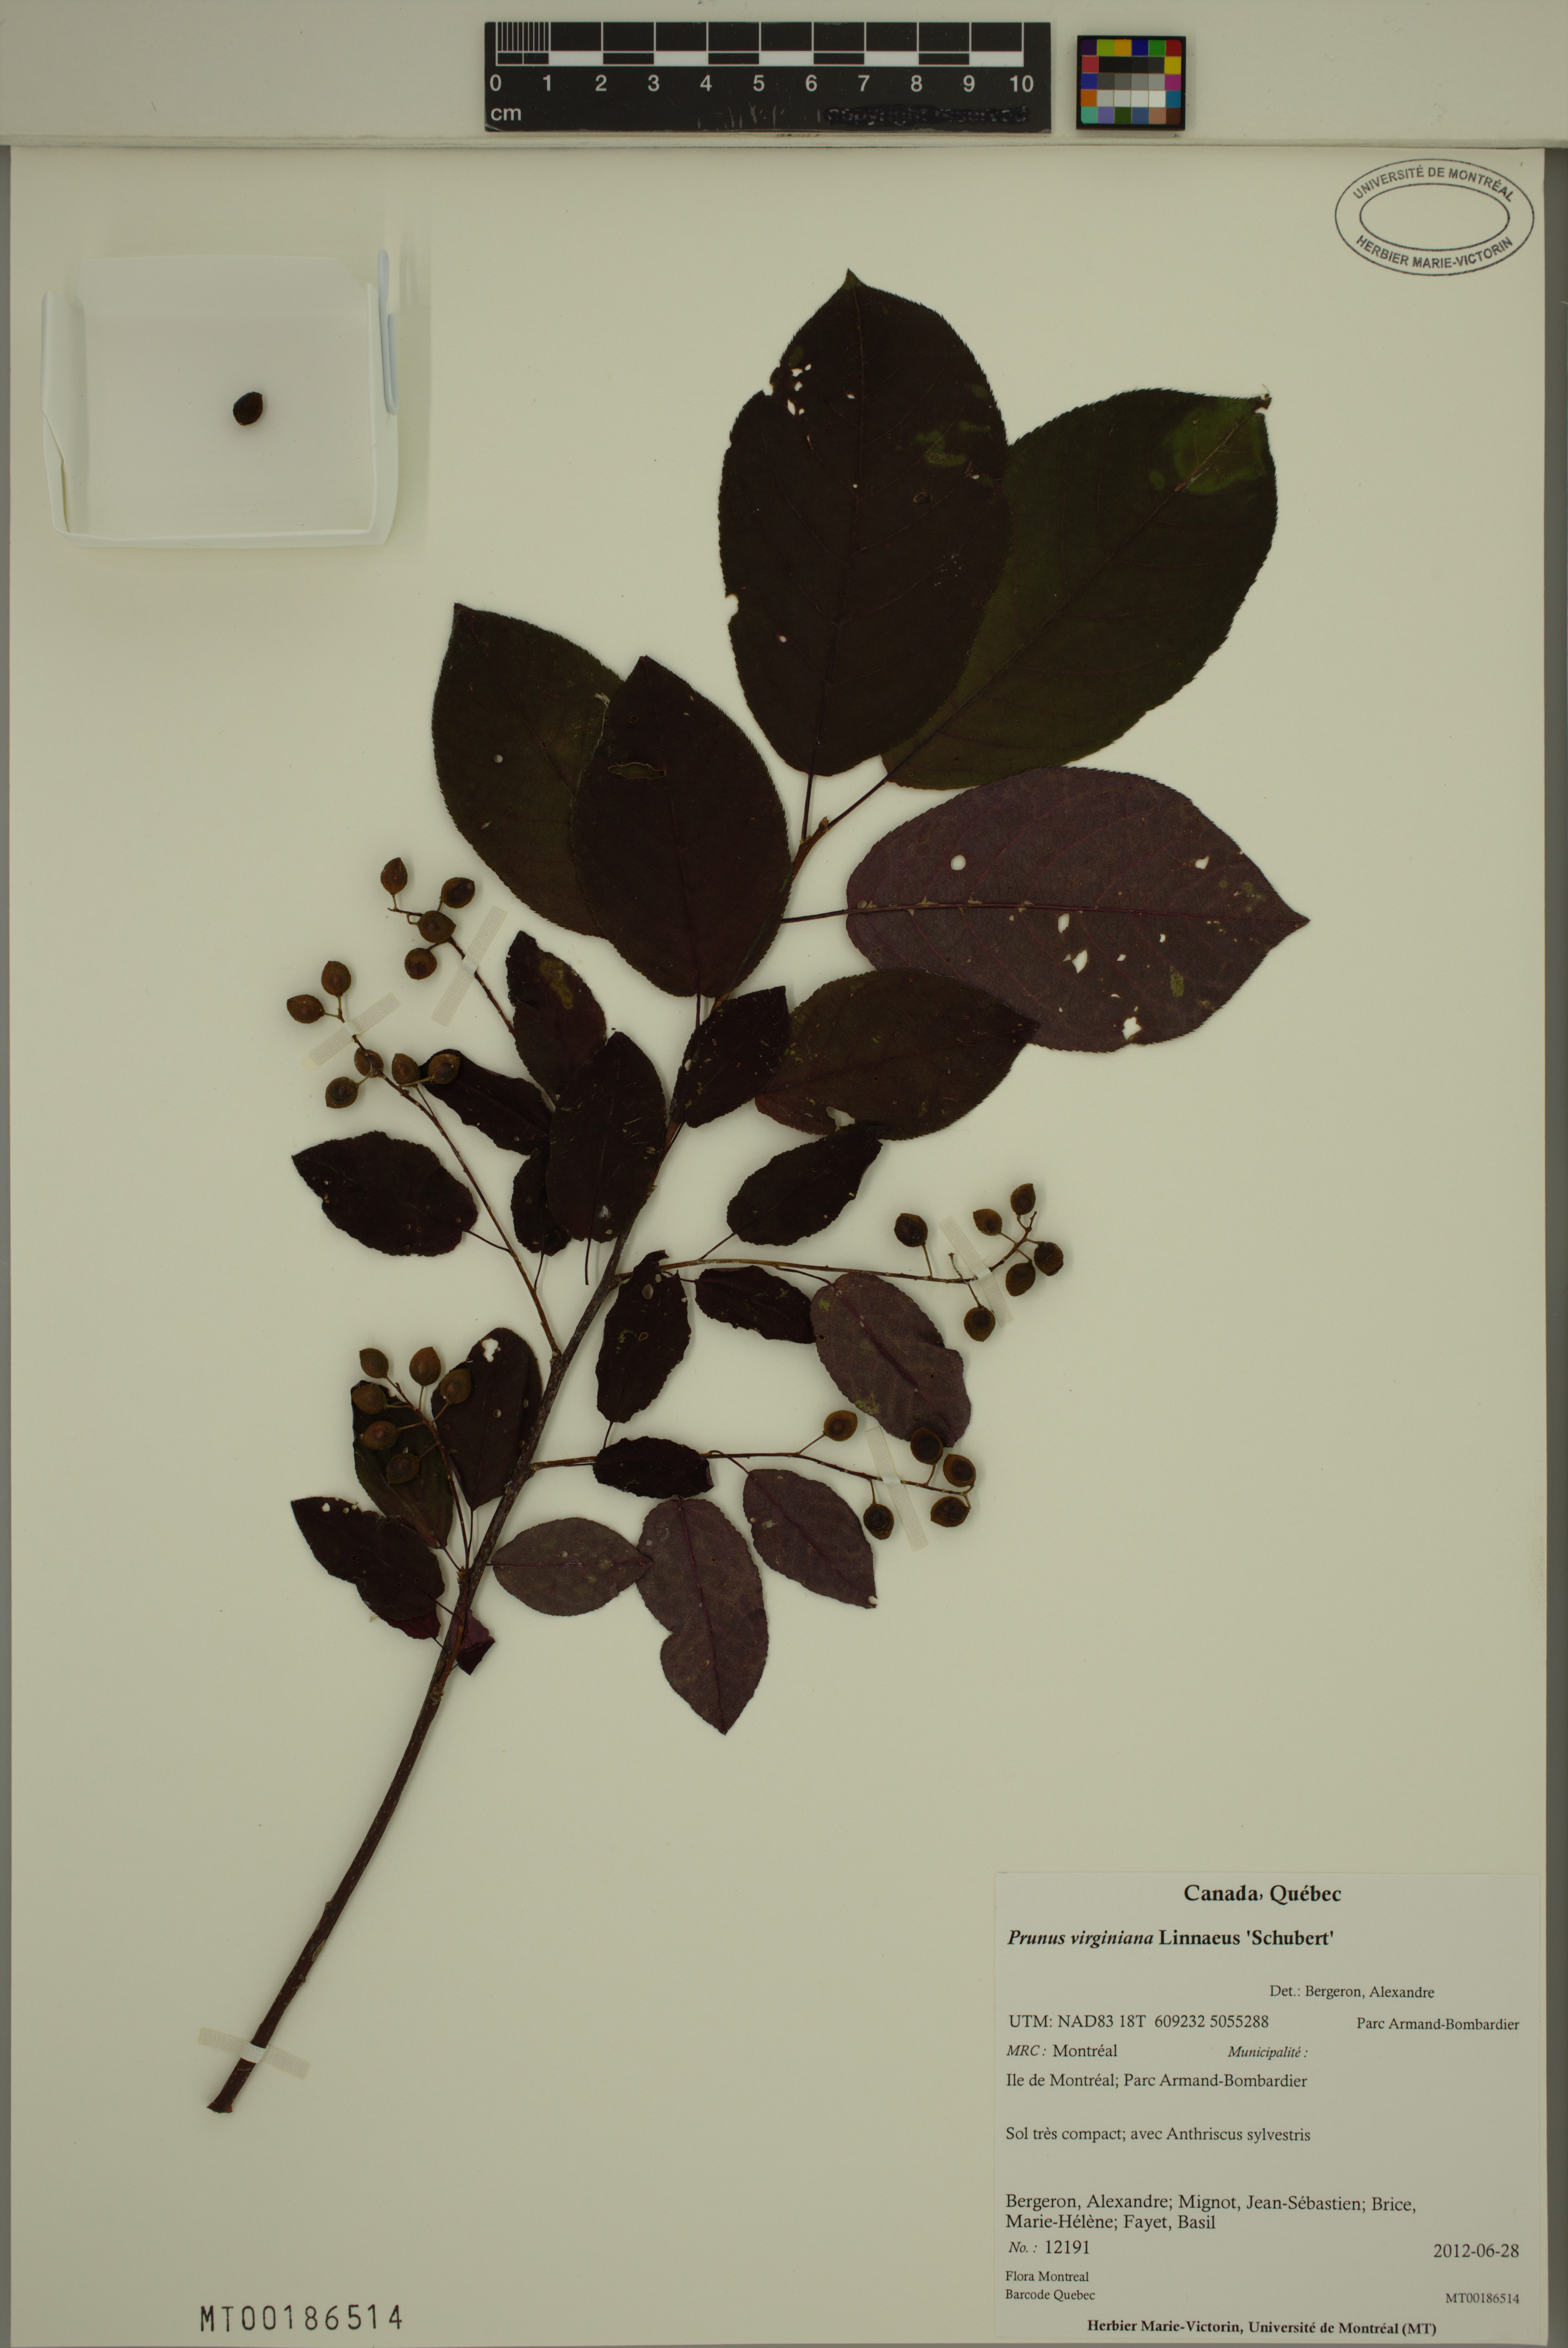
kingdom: Plantae
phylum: Tracheophyta
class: Magnoliopsida
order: Rosales
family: Rosaceae
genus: Prunus
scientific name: Prunus virginiana
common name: Chokecherry
